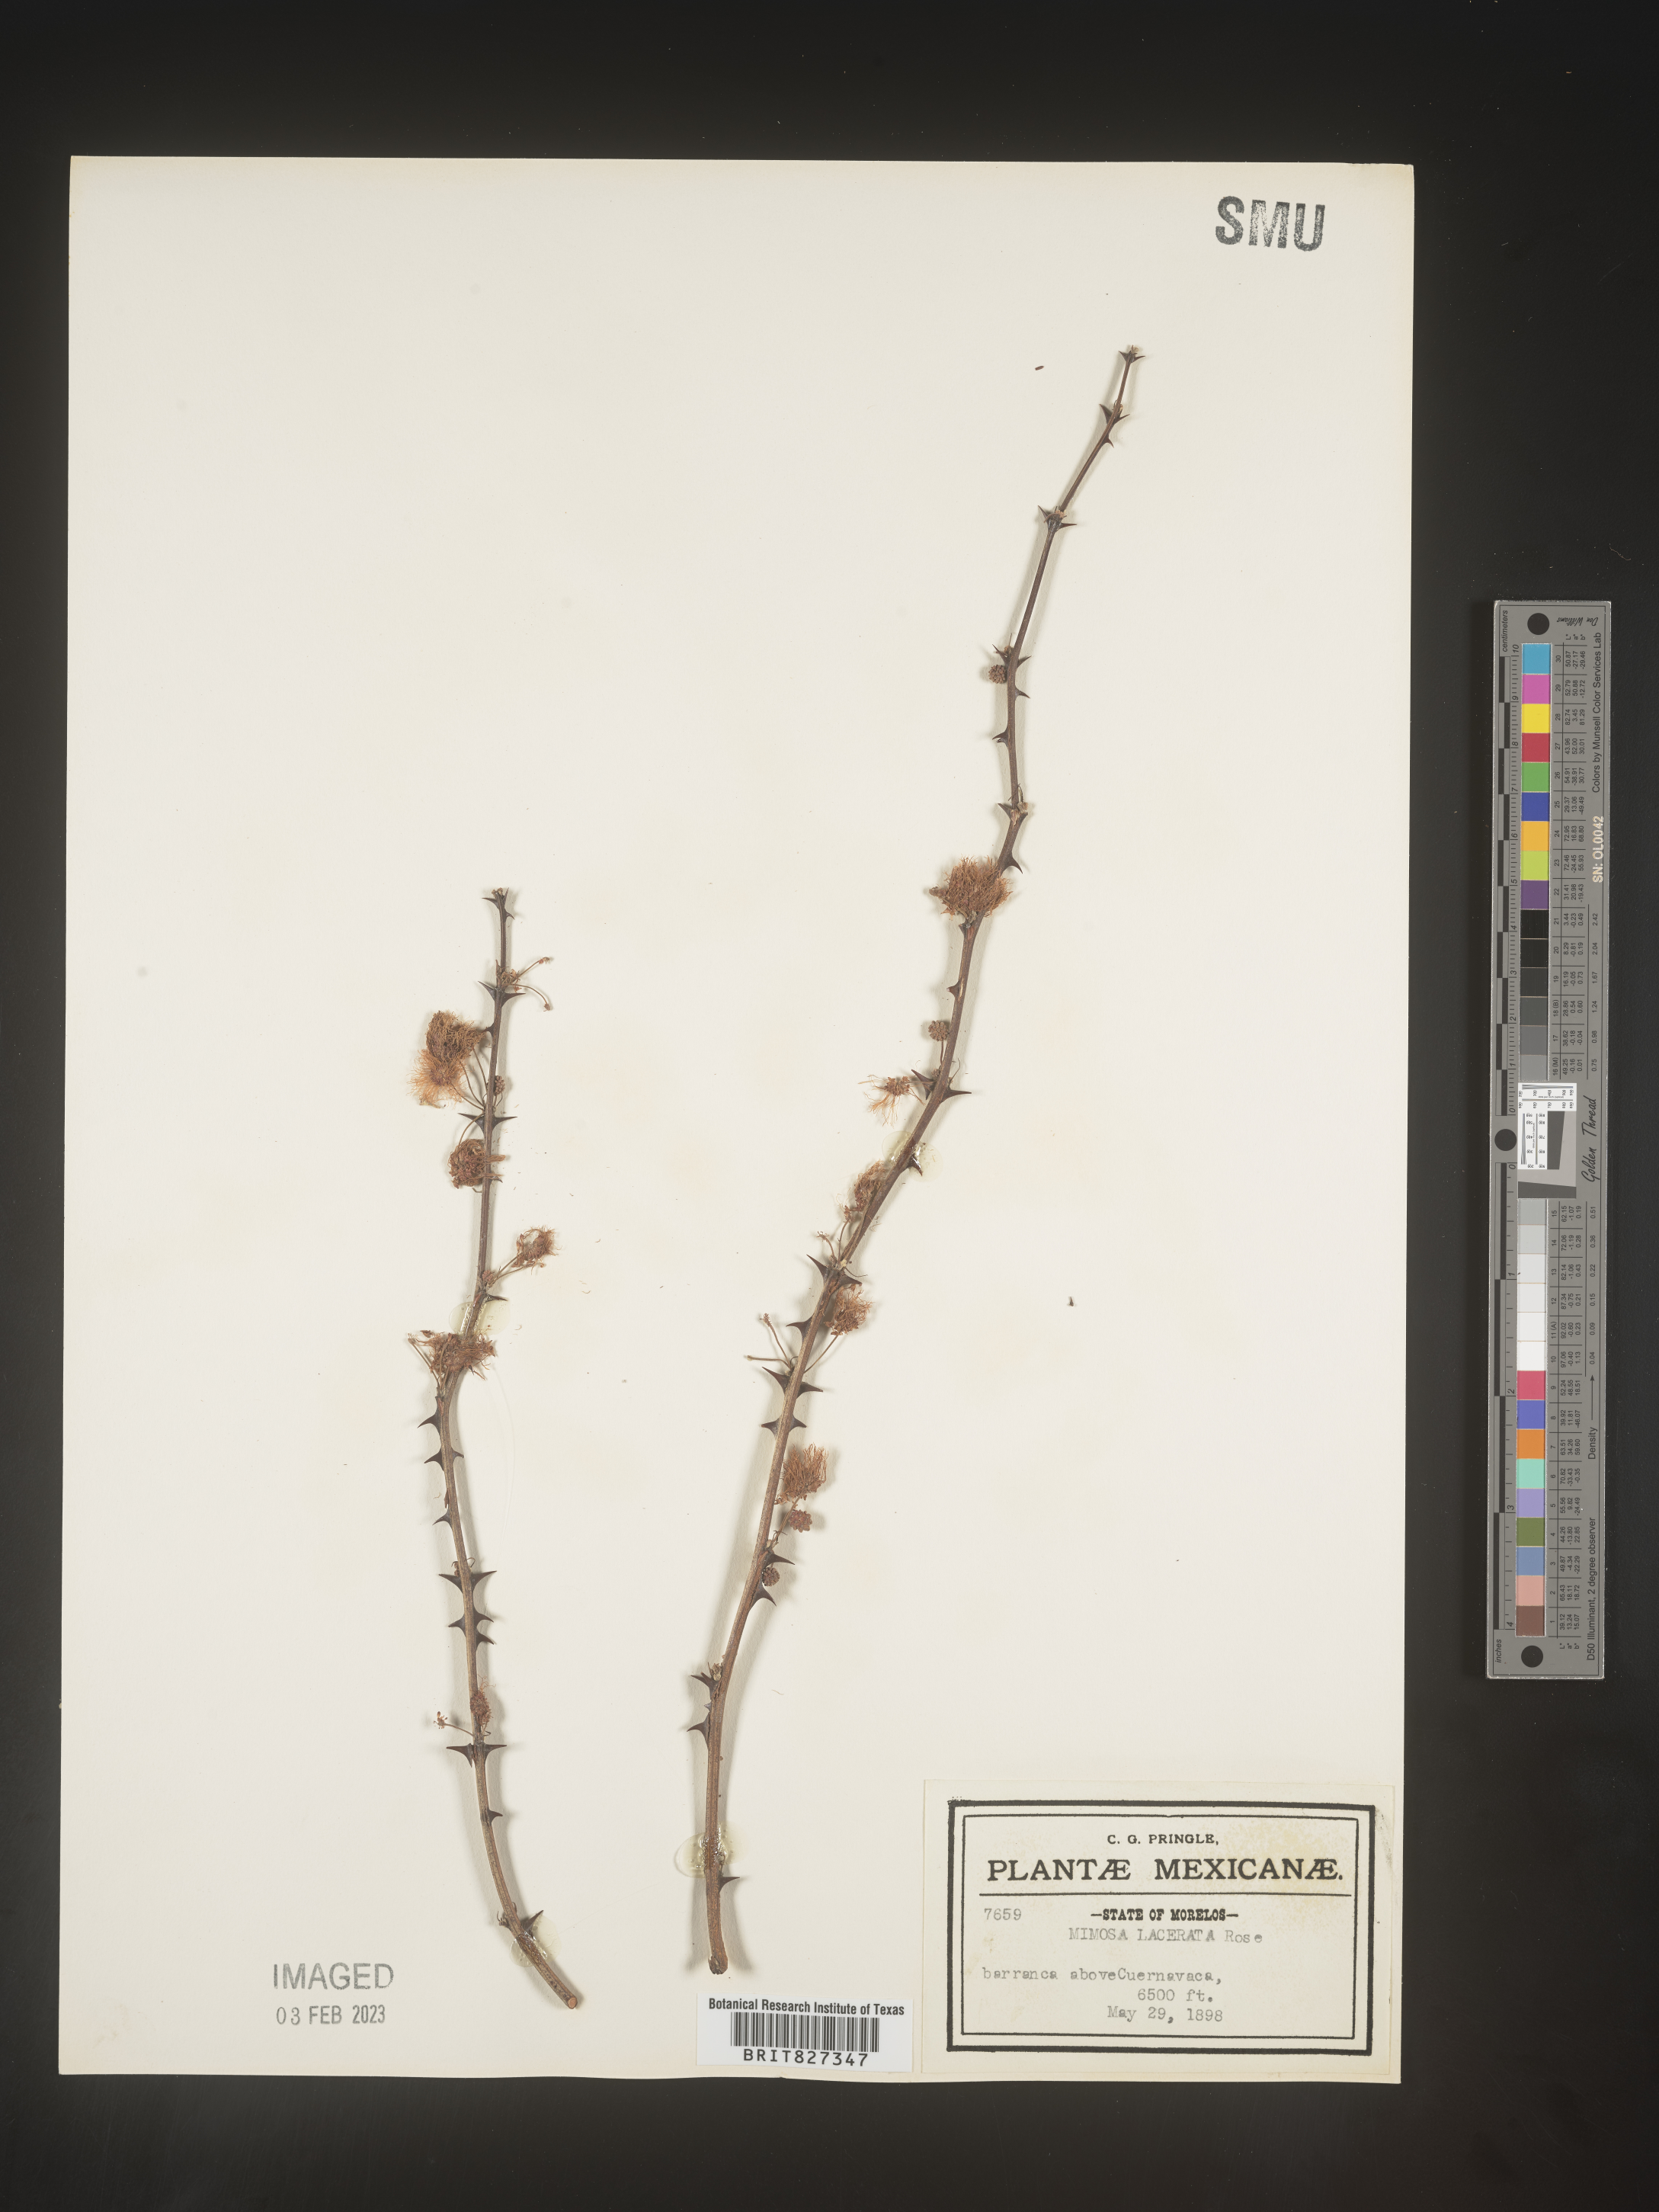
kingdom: Plantae
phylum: Tracheophyta
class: Magnoliopsida
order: Fabales
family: Fabaceae
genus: Mimosa
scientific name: Mimosa
